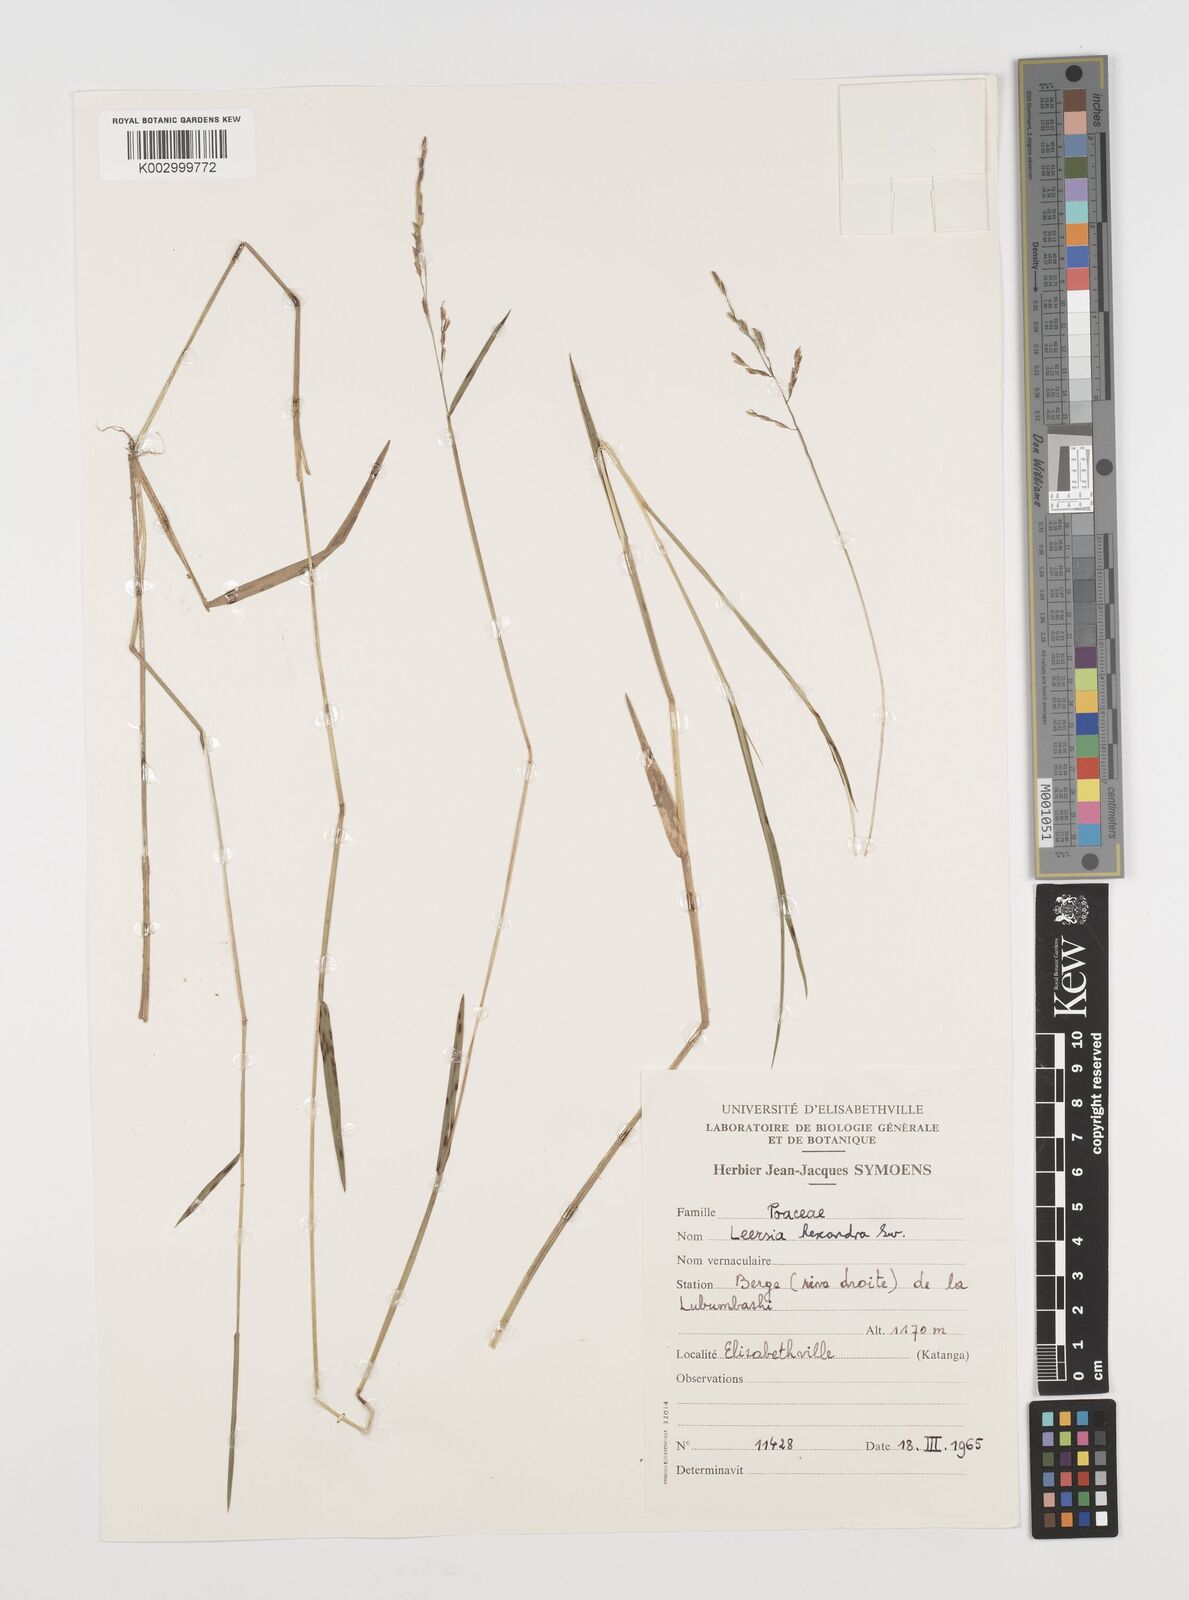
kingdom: Plantae
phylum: Tracheophyta
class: Liliopsida
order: Poales
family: Poaceae
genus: Leersia
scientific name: Leersia hexandra
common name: Southern cut grass
